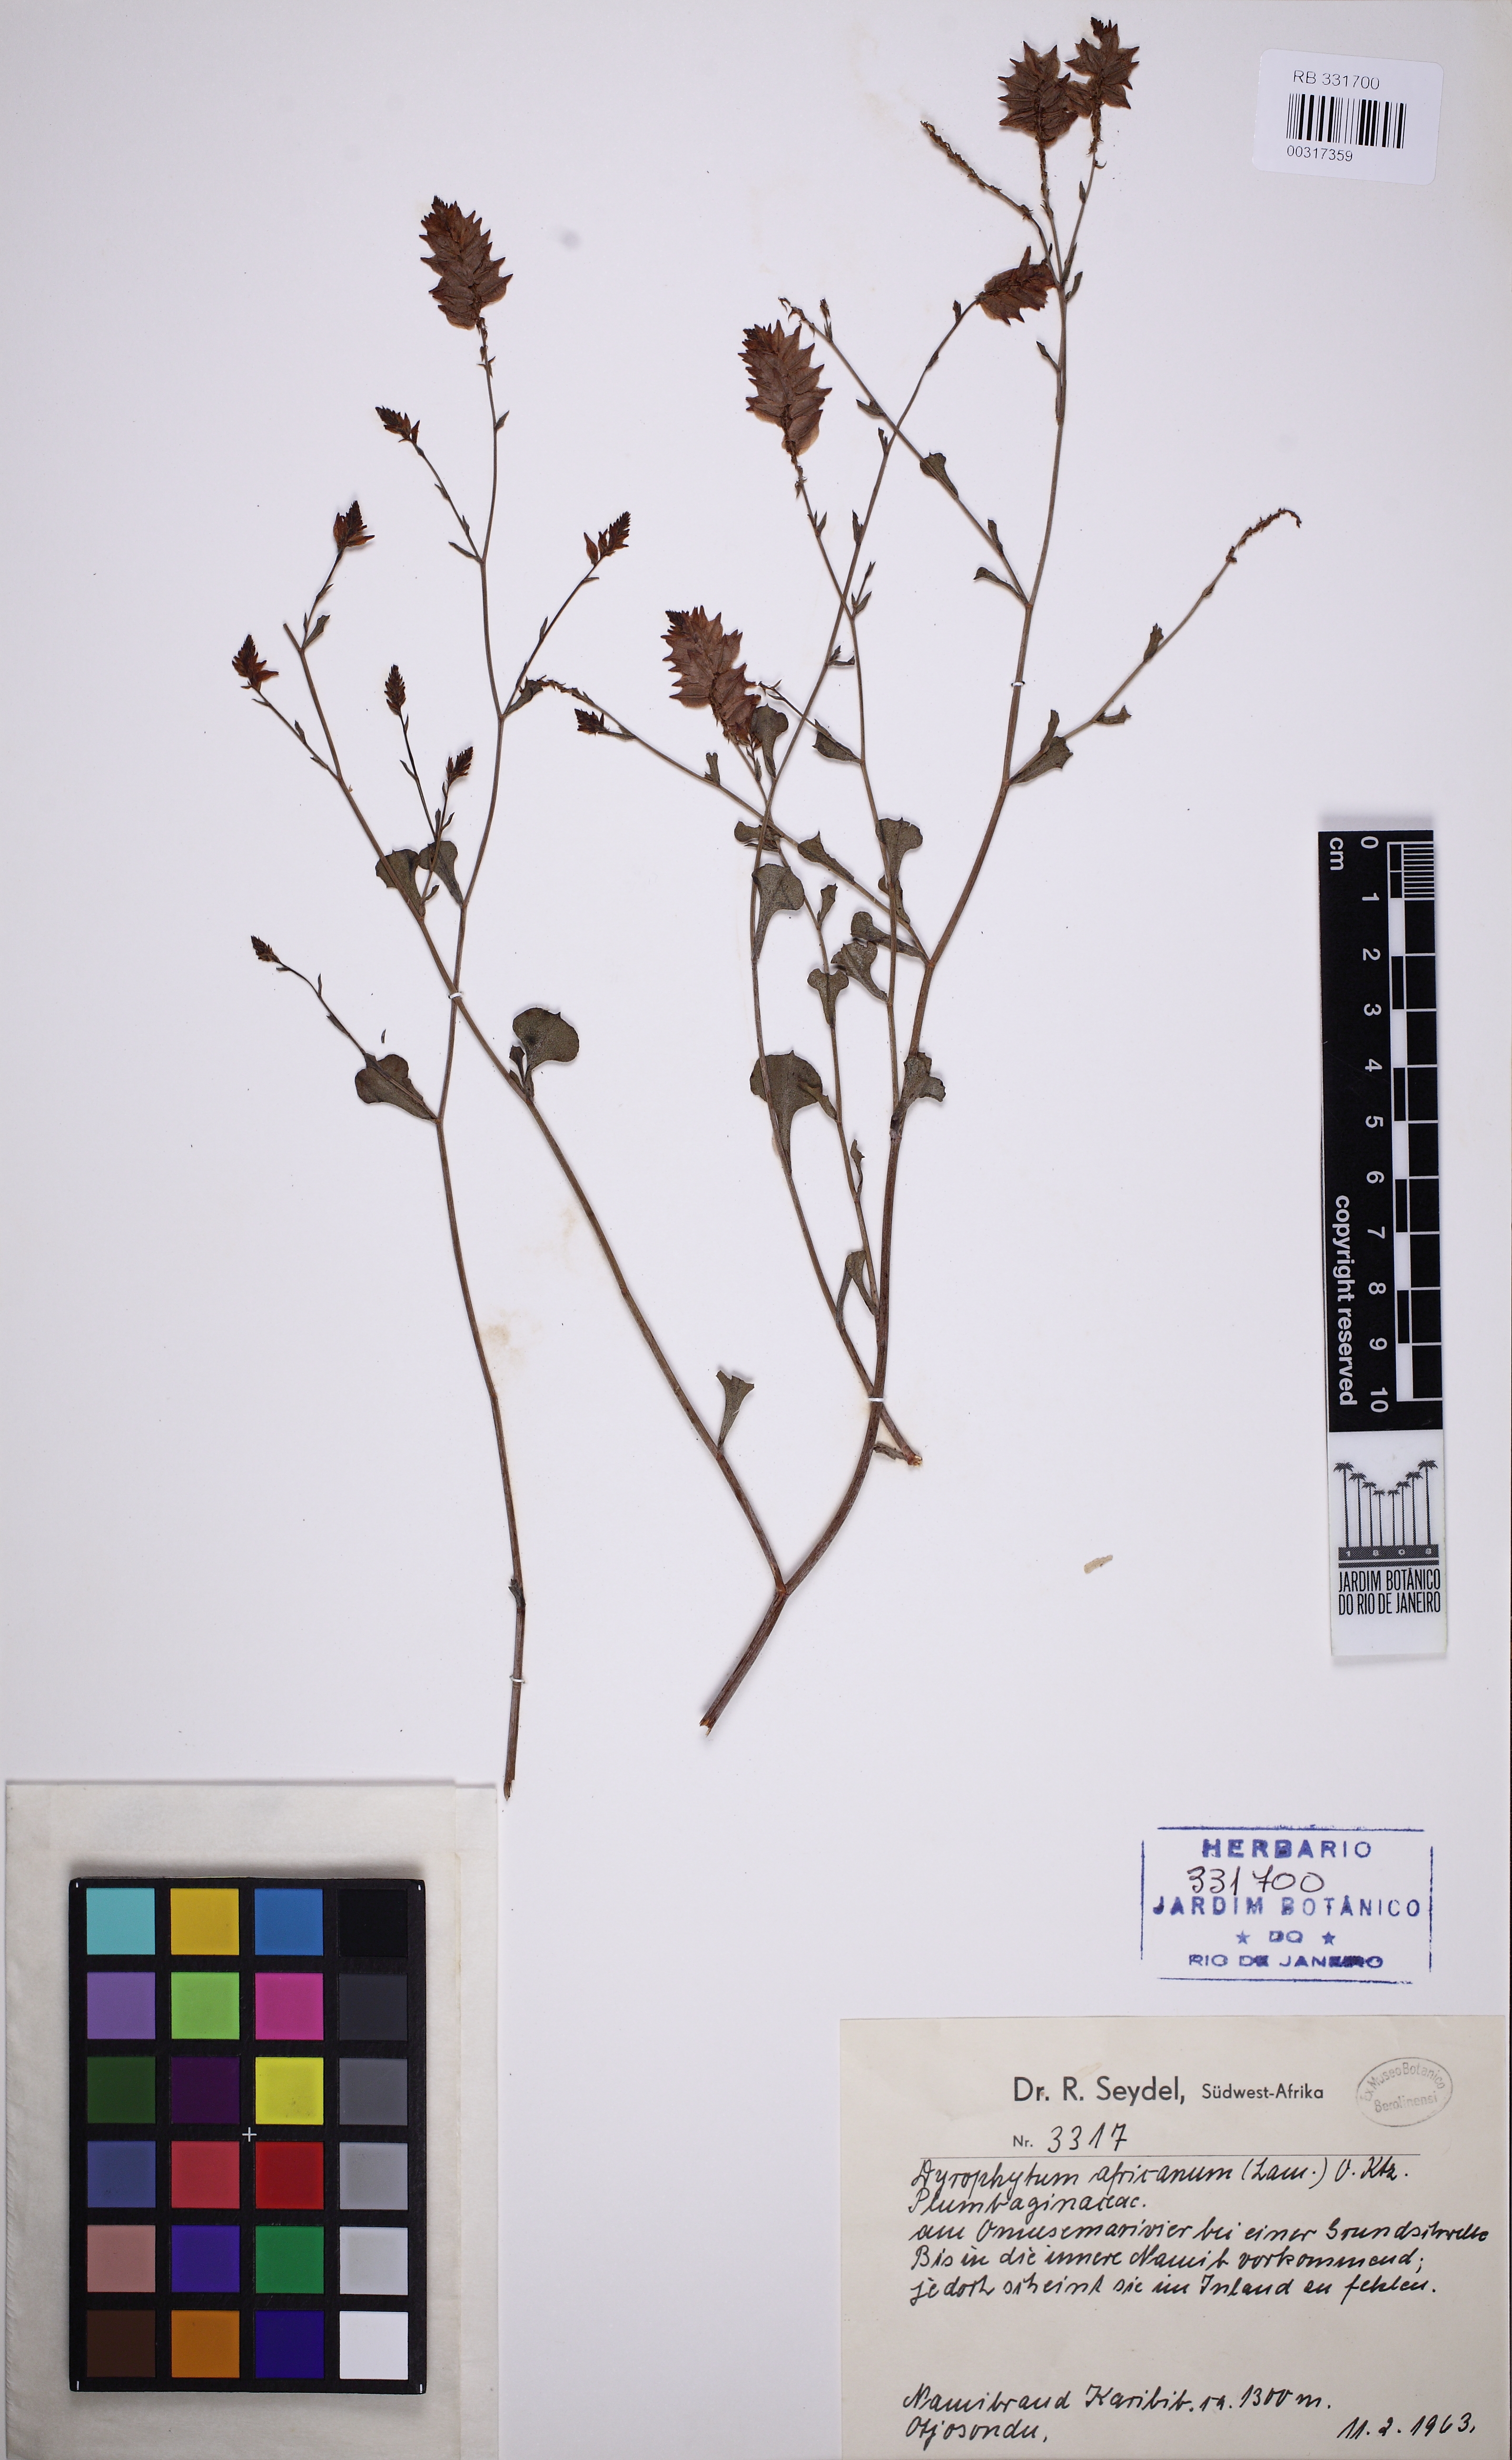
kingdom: Plantae
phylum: Tracheophyta
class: Magnoliopsida
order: Caryophyllales
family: Plumbaginaceae
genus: Dyerophytum
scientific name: Dyerophytum africanum
